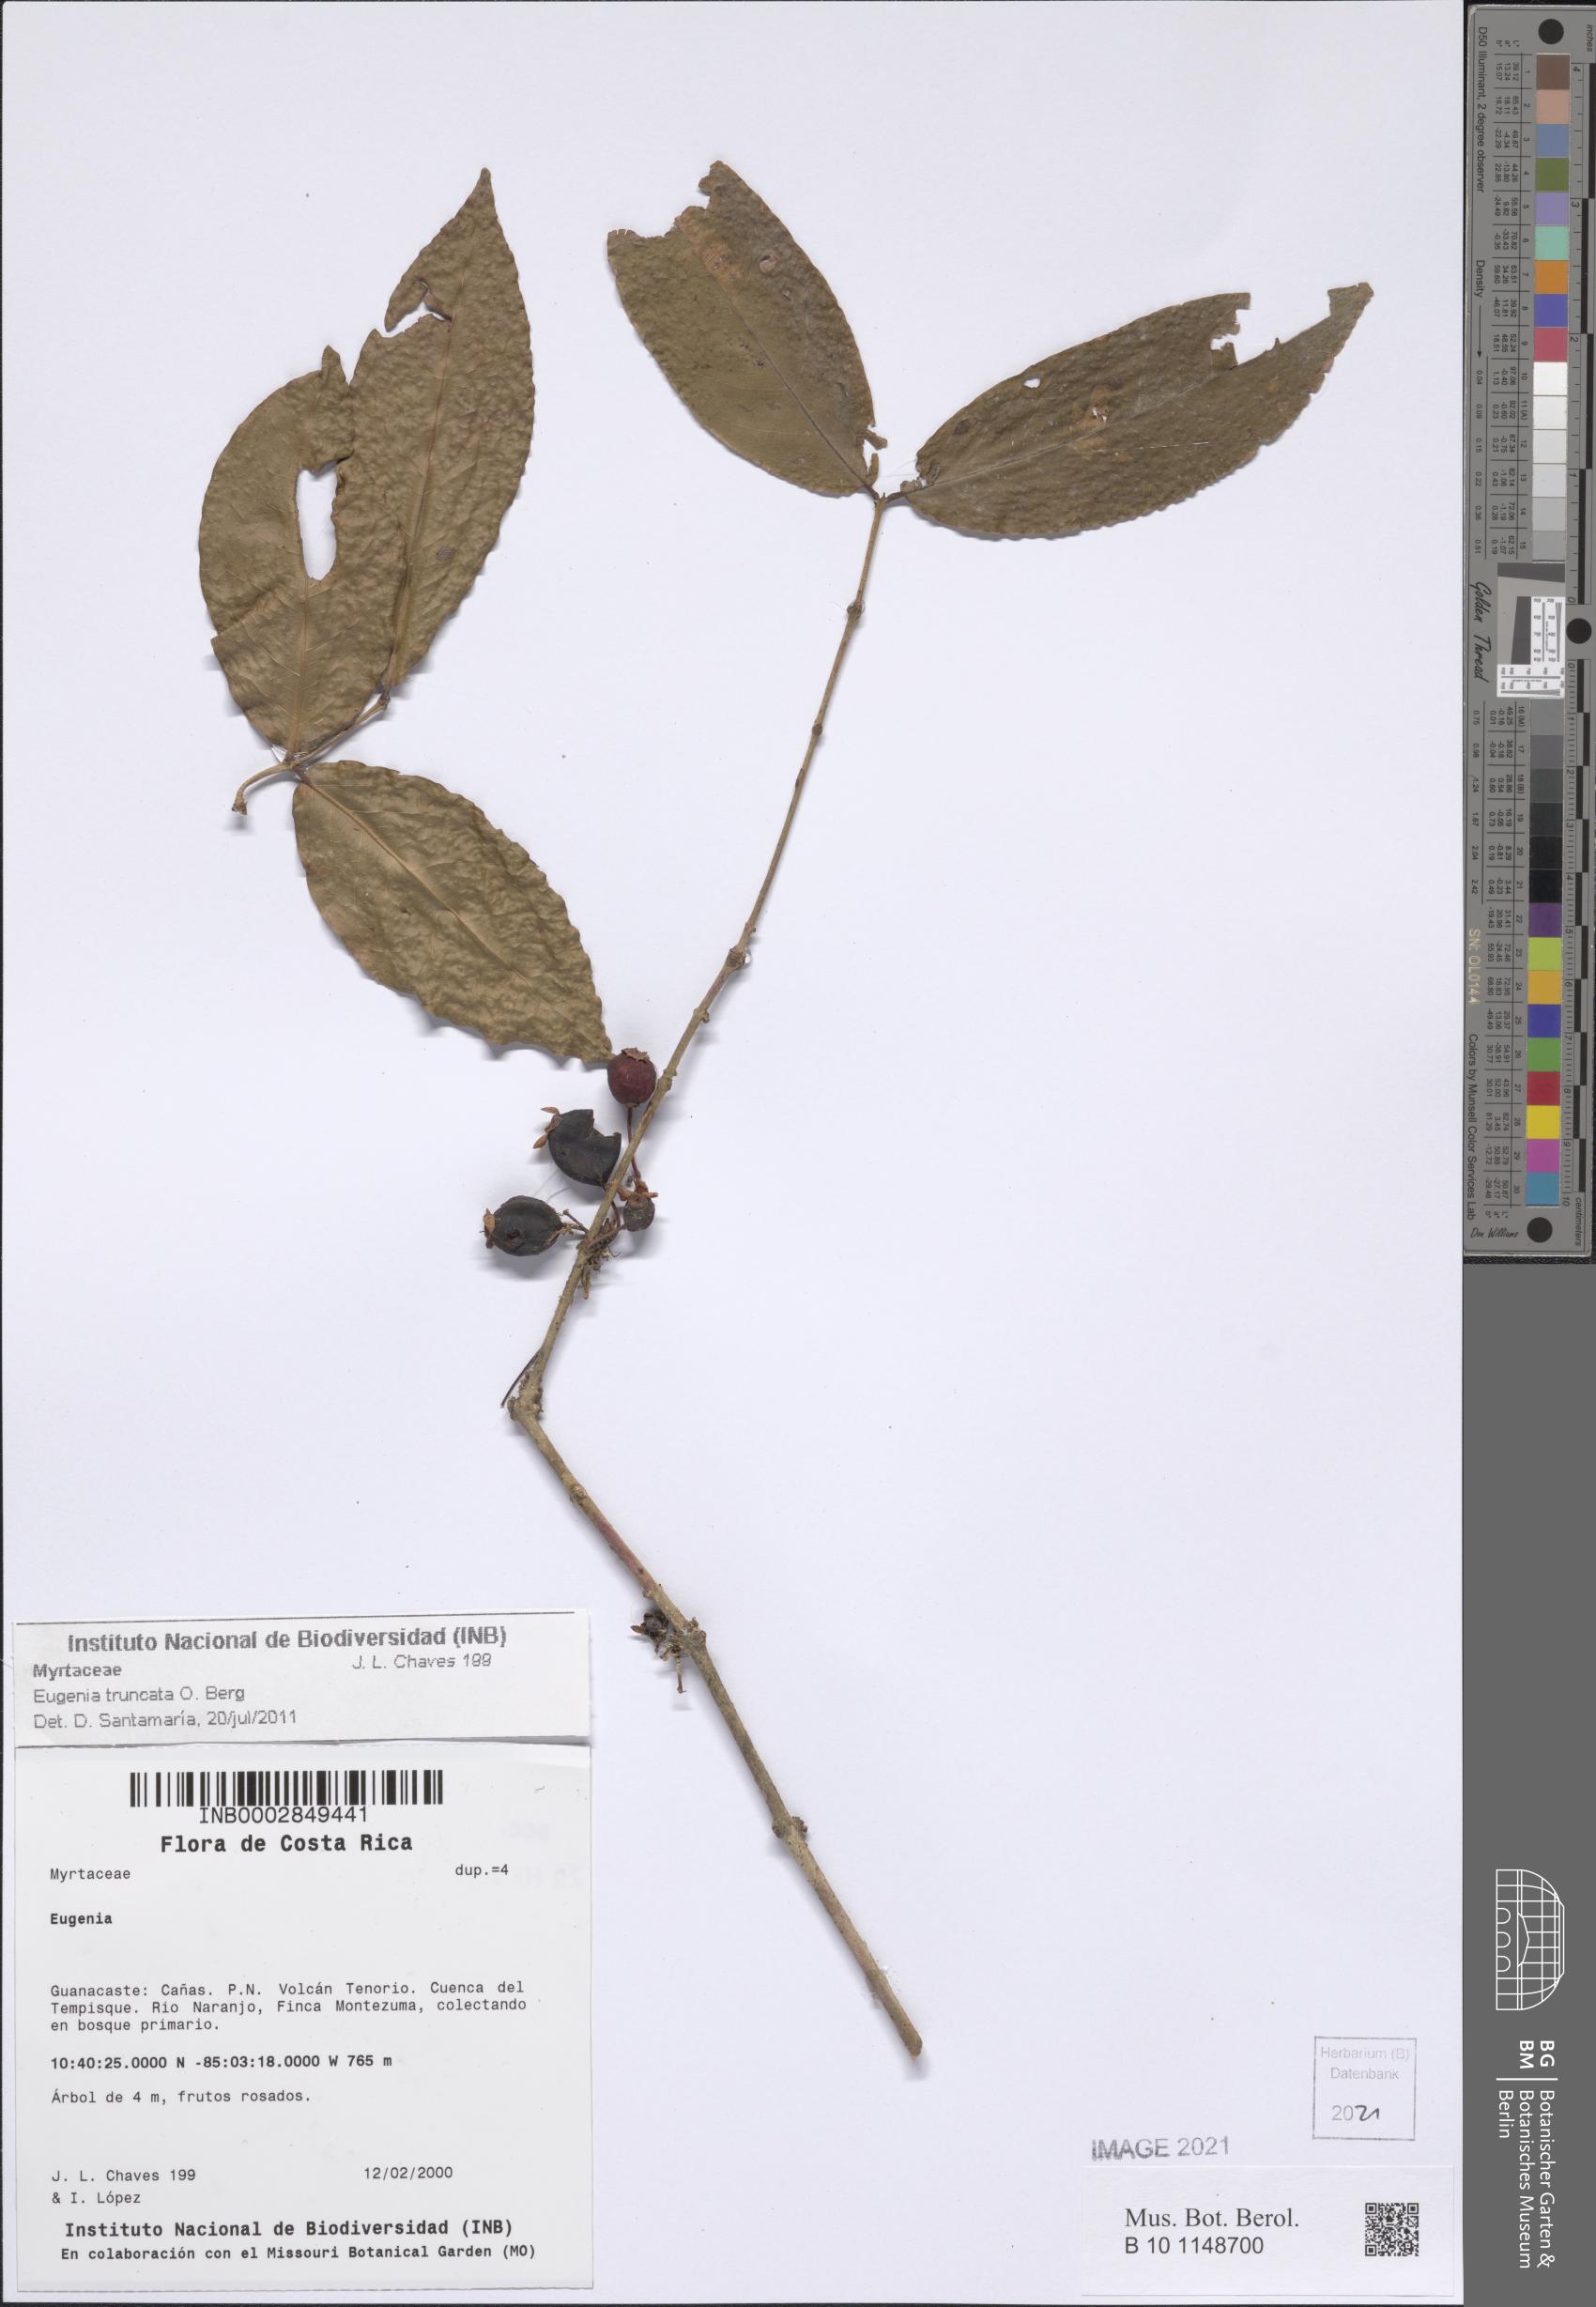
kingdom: Plantae
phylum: Tracheophyta
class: Magnoliopsida
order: Myrtales
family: Myrtaceae
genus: Eugenia
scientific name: Eugenia
